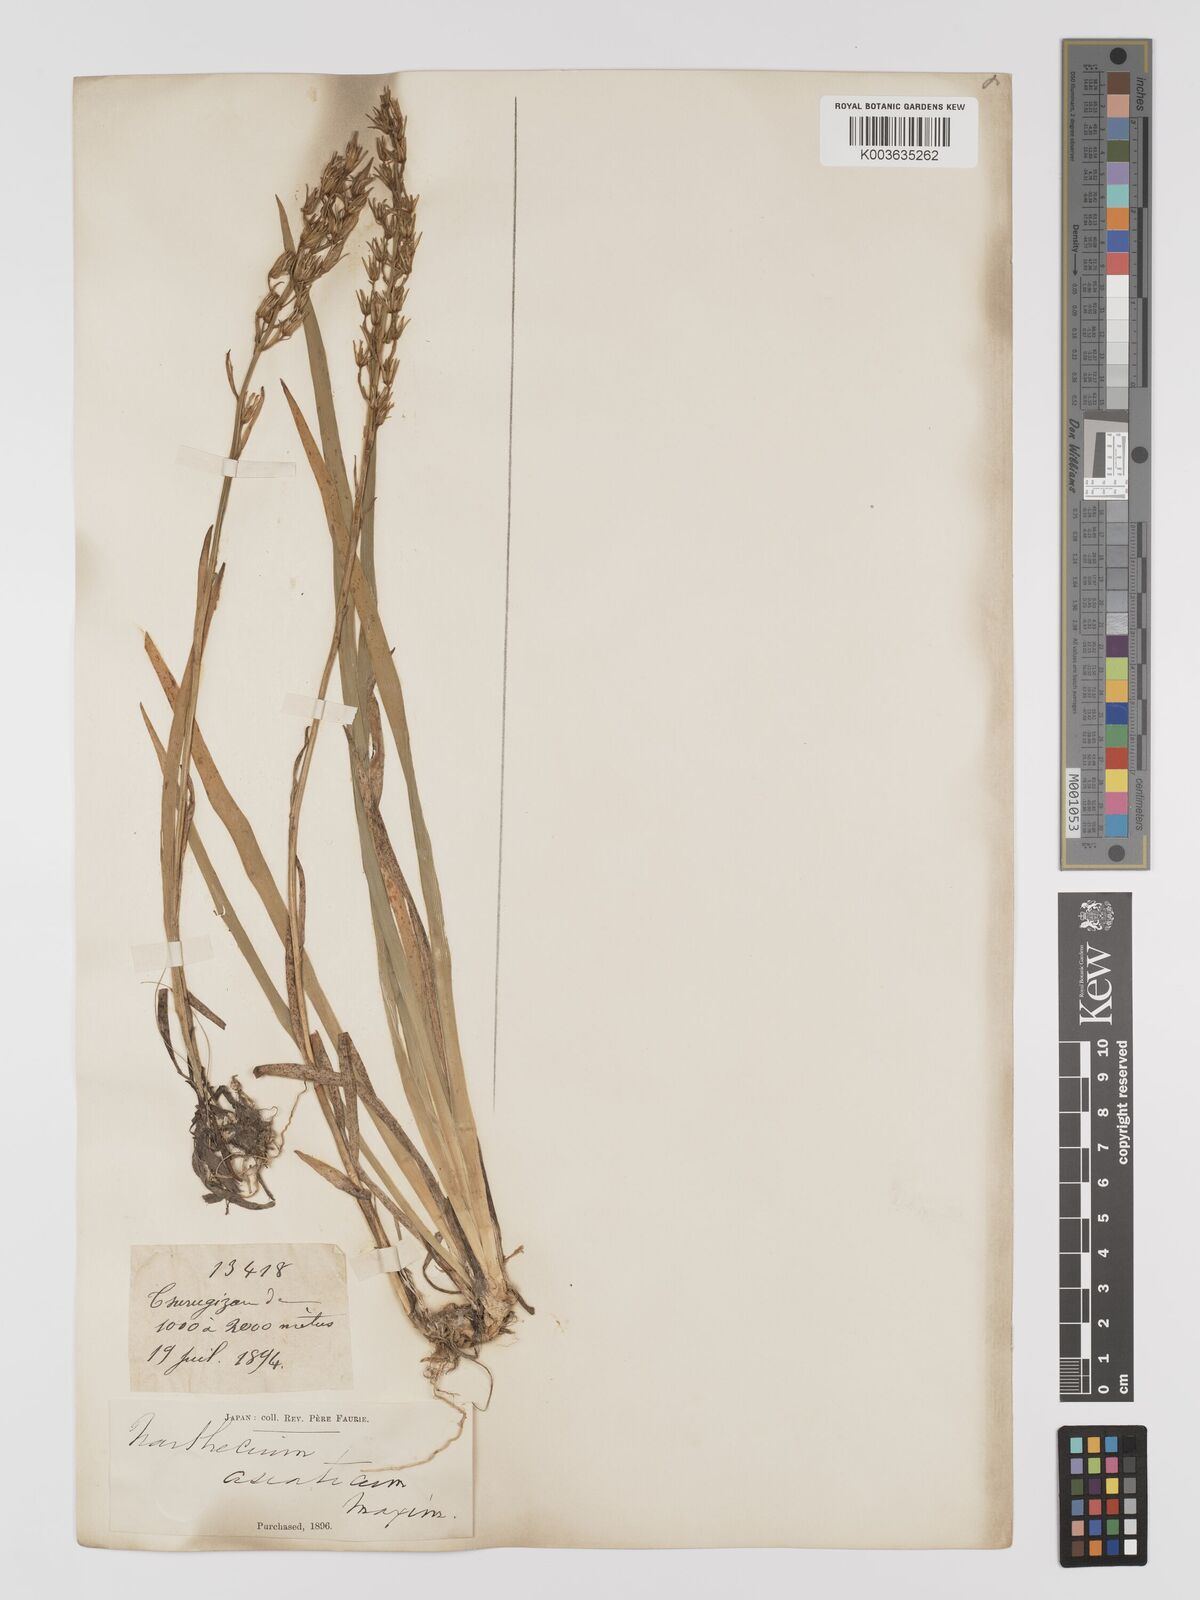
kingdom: Plantae
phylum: Tracheophyta
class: Liliopsida
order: Dioscoreales
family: Nartheciaceae
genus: Narthecium
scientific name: Narthecium asiaticum
